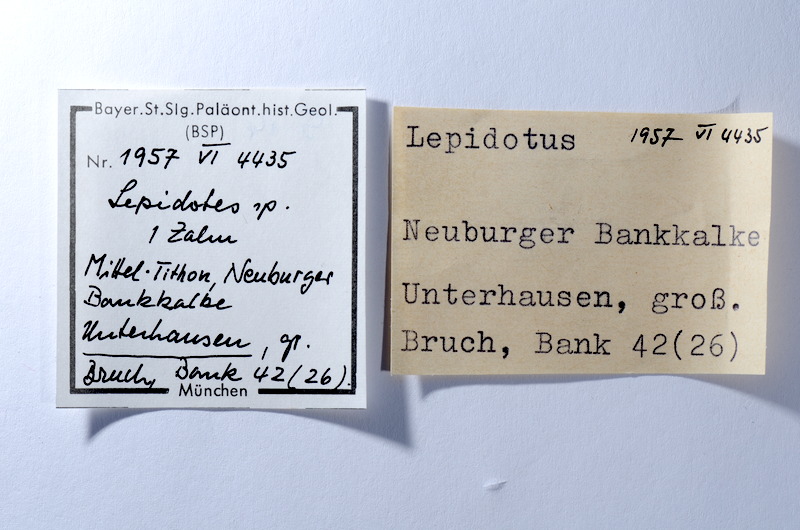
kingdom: Animalia
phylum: Chordata
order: Lepisosteiformes
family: Lepidotidae
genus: Lepidotes
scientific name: Lepidotes
